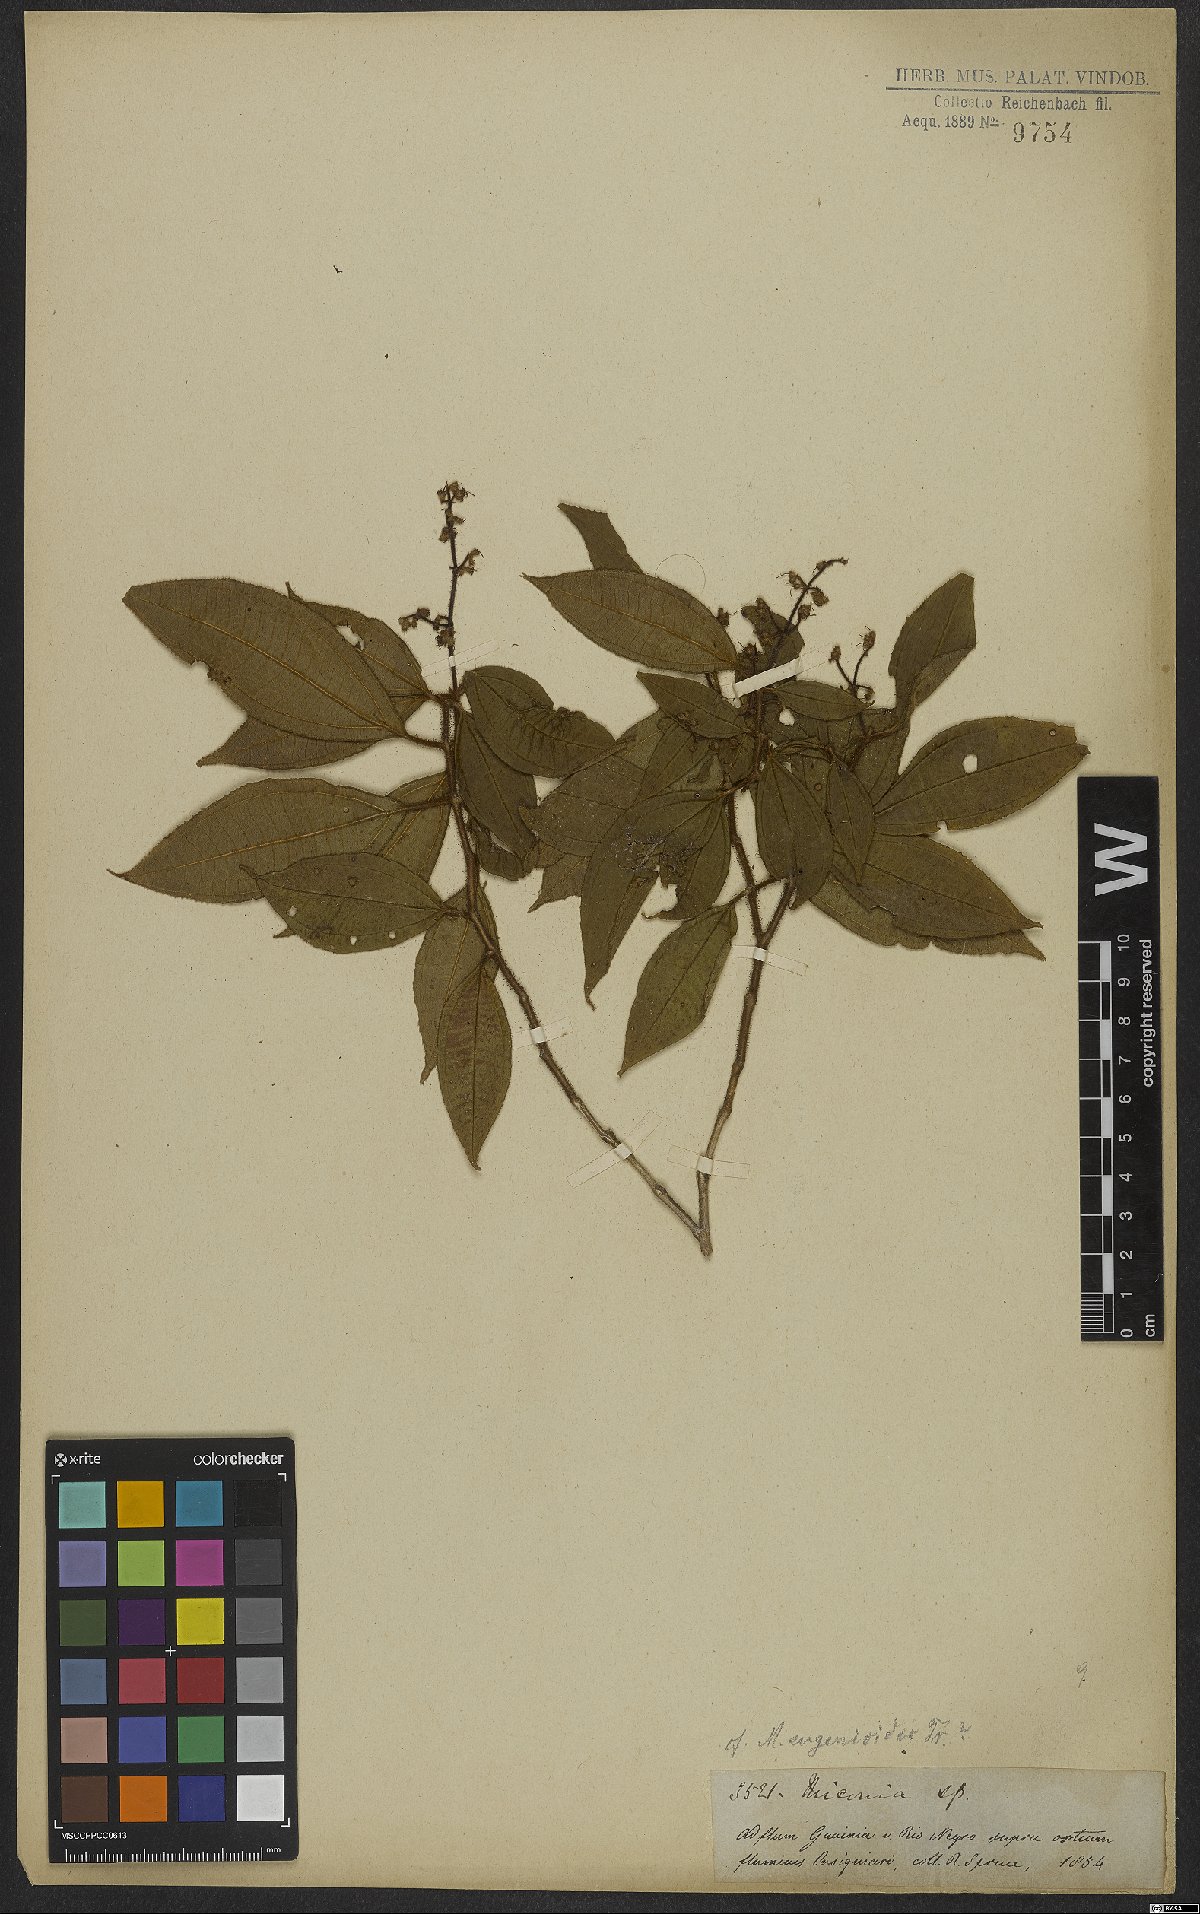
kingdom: Plantae
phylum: Tracheophyta
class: Magnoliopsida
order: Myrtales
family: Melastomataceae
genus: Miconia
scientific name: Miconia
